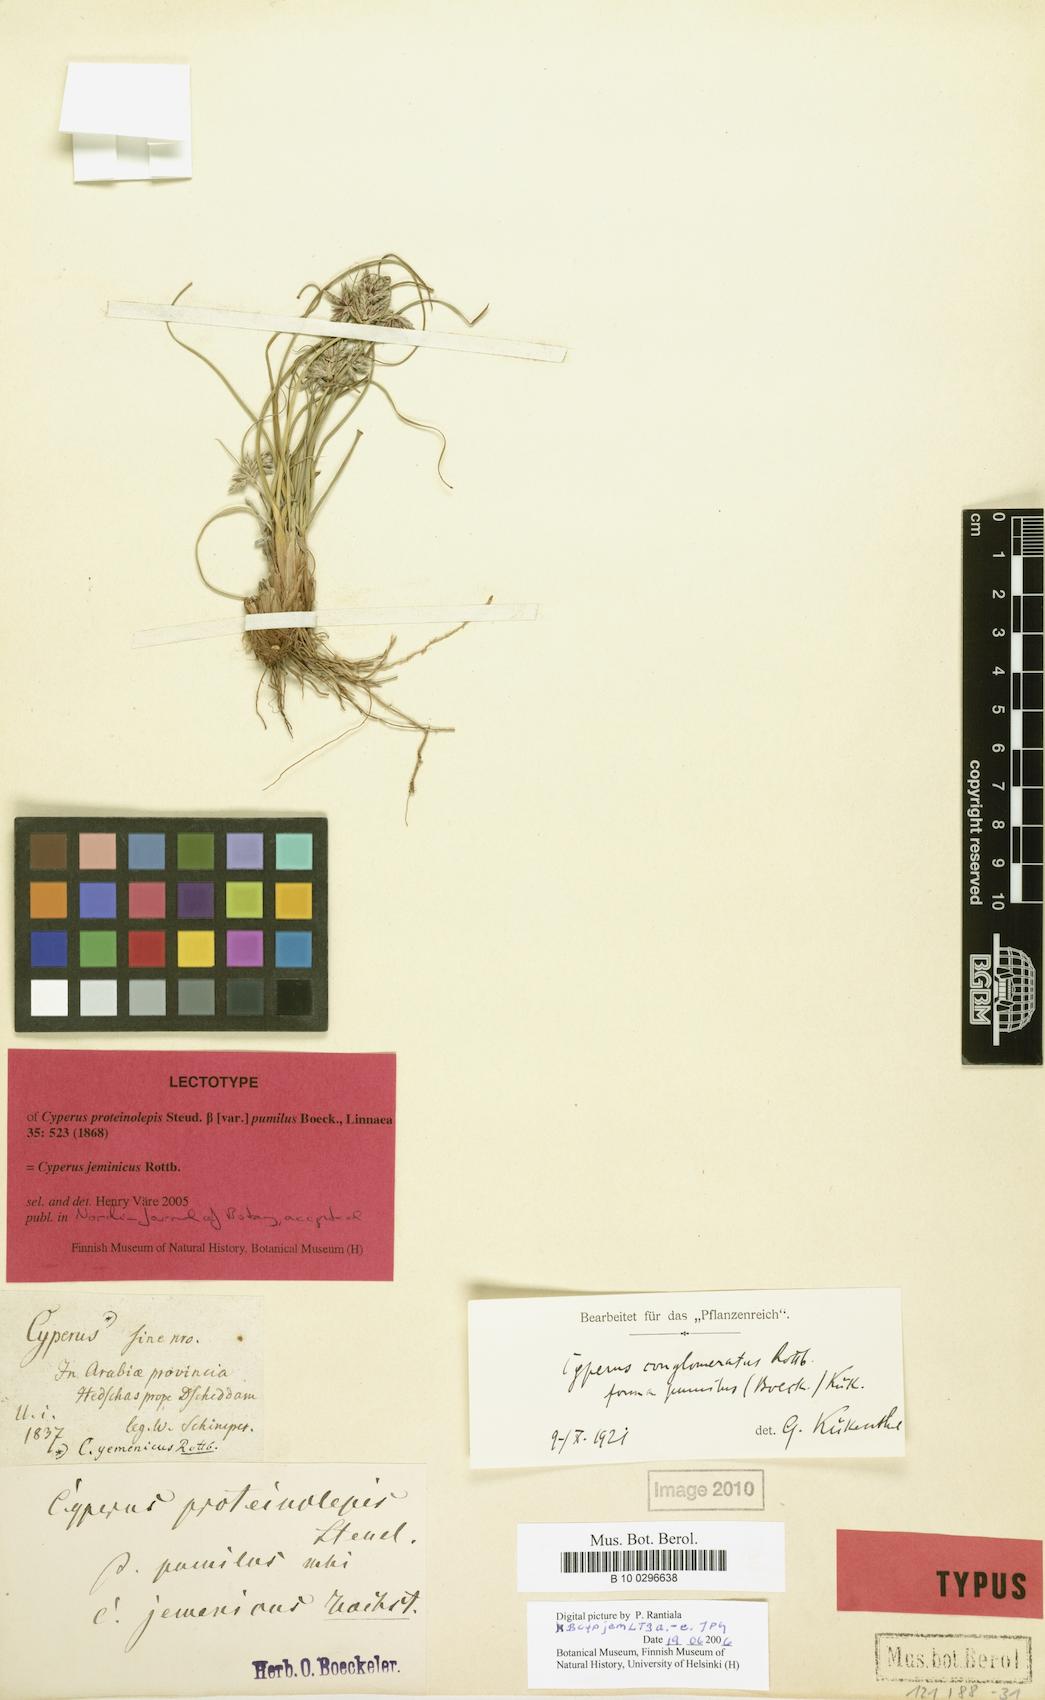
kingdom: Plantae
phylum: Tracheophyta
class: Liliopsida
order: Poales
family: Cyperaceae
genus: Cyperus
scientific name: Cyperus jeminicus
